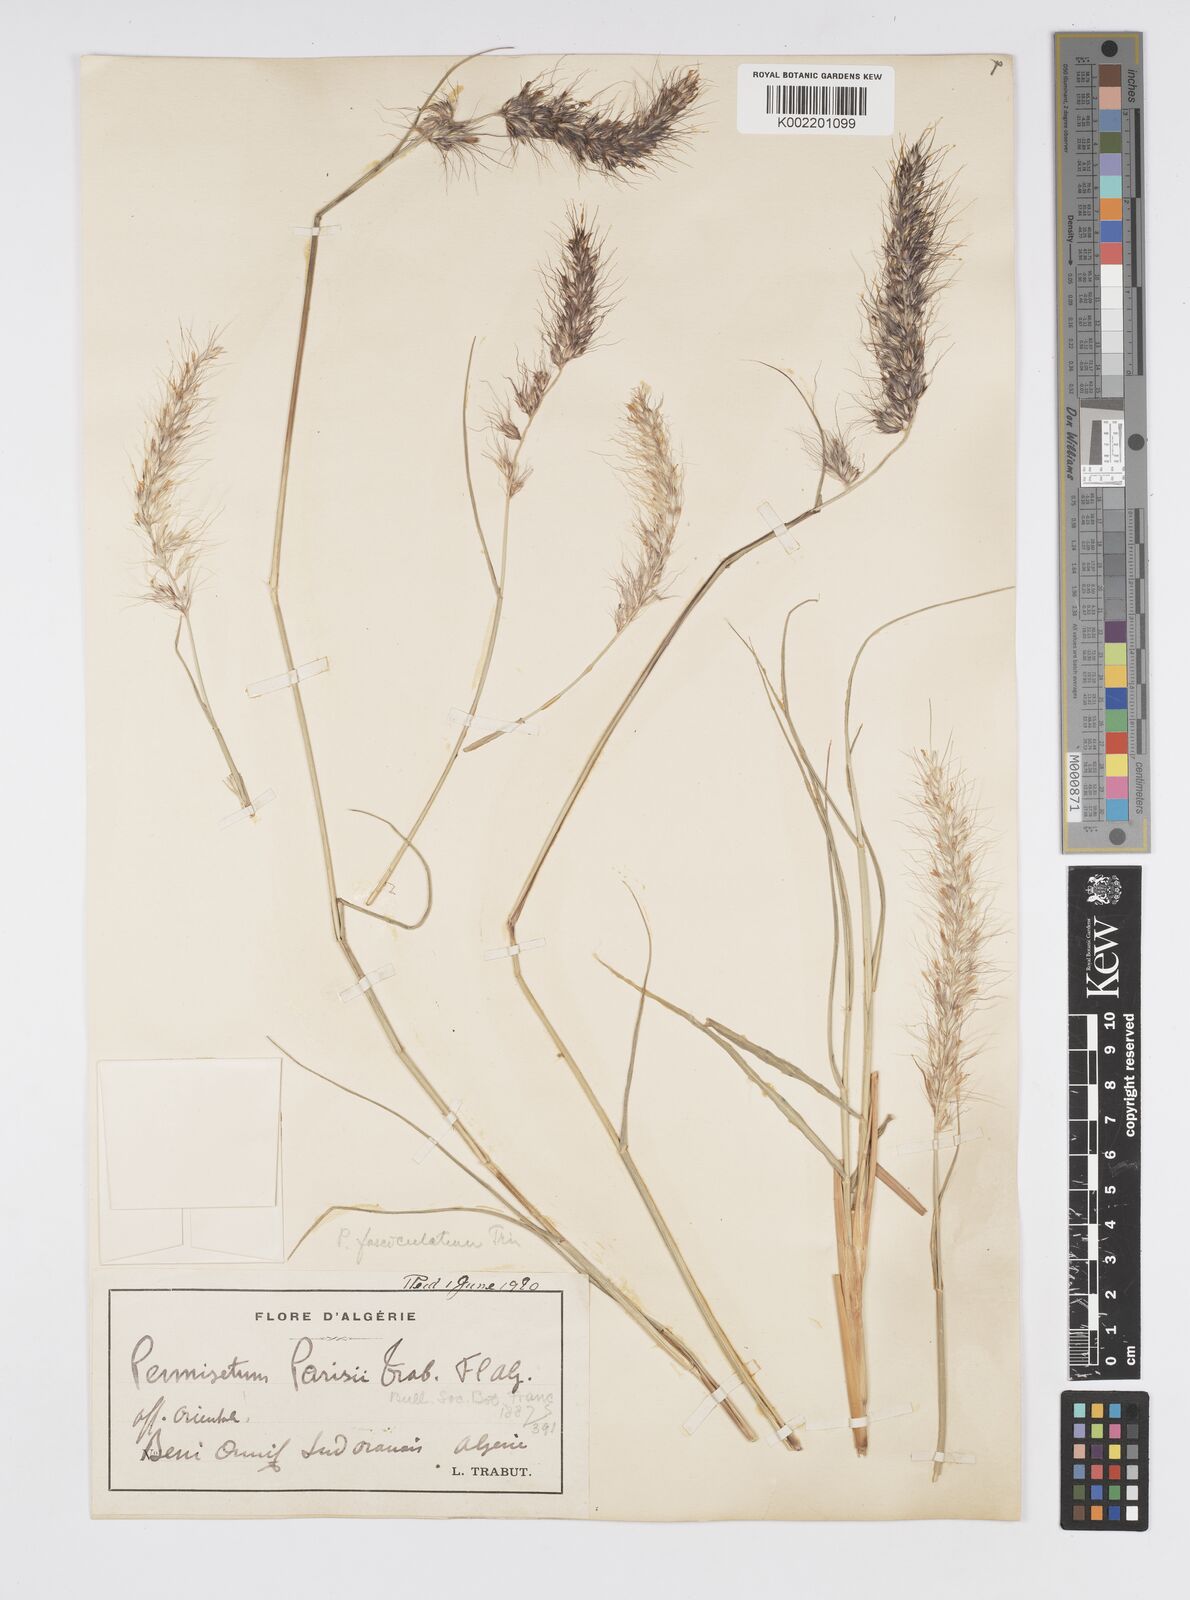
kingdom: Plantae
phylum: Tracheophyta
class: Liliopsida
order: Poales
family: Poaceae
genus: Cenchrus
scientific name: Cenchrus setaceus
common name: Crimson fountaingrass
